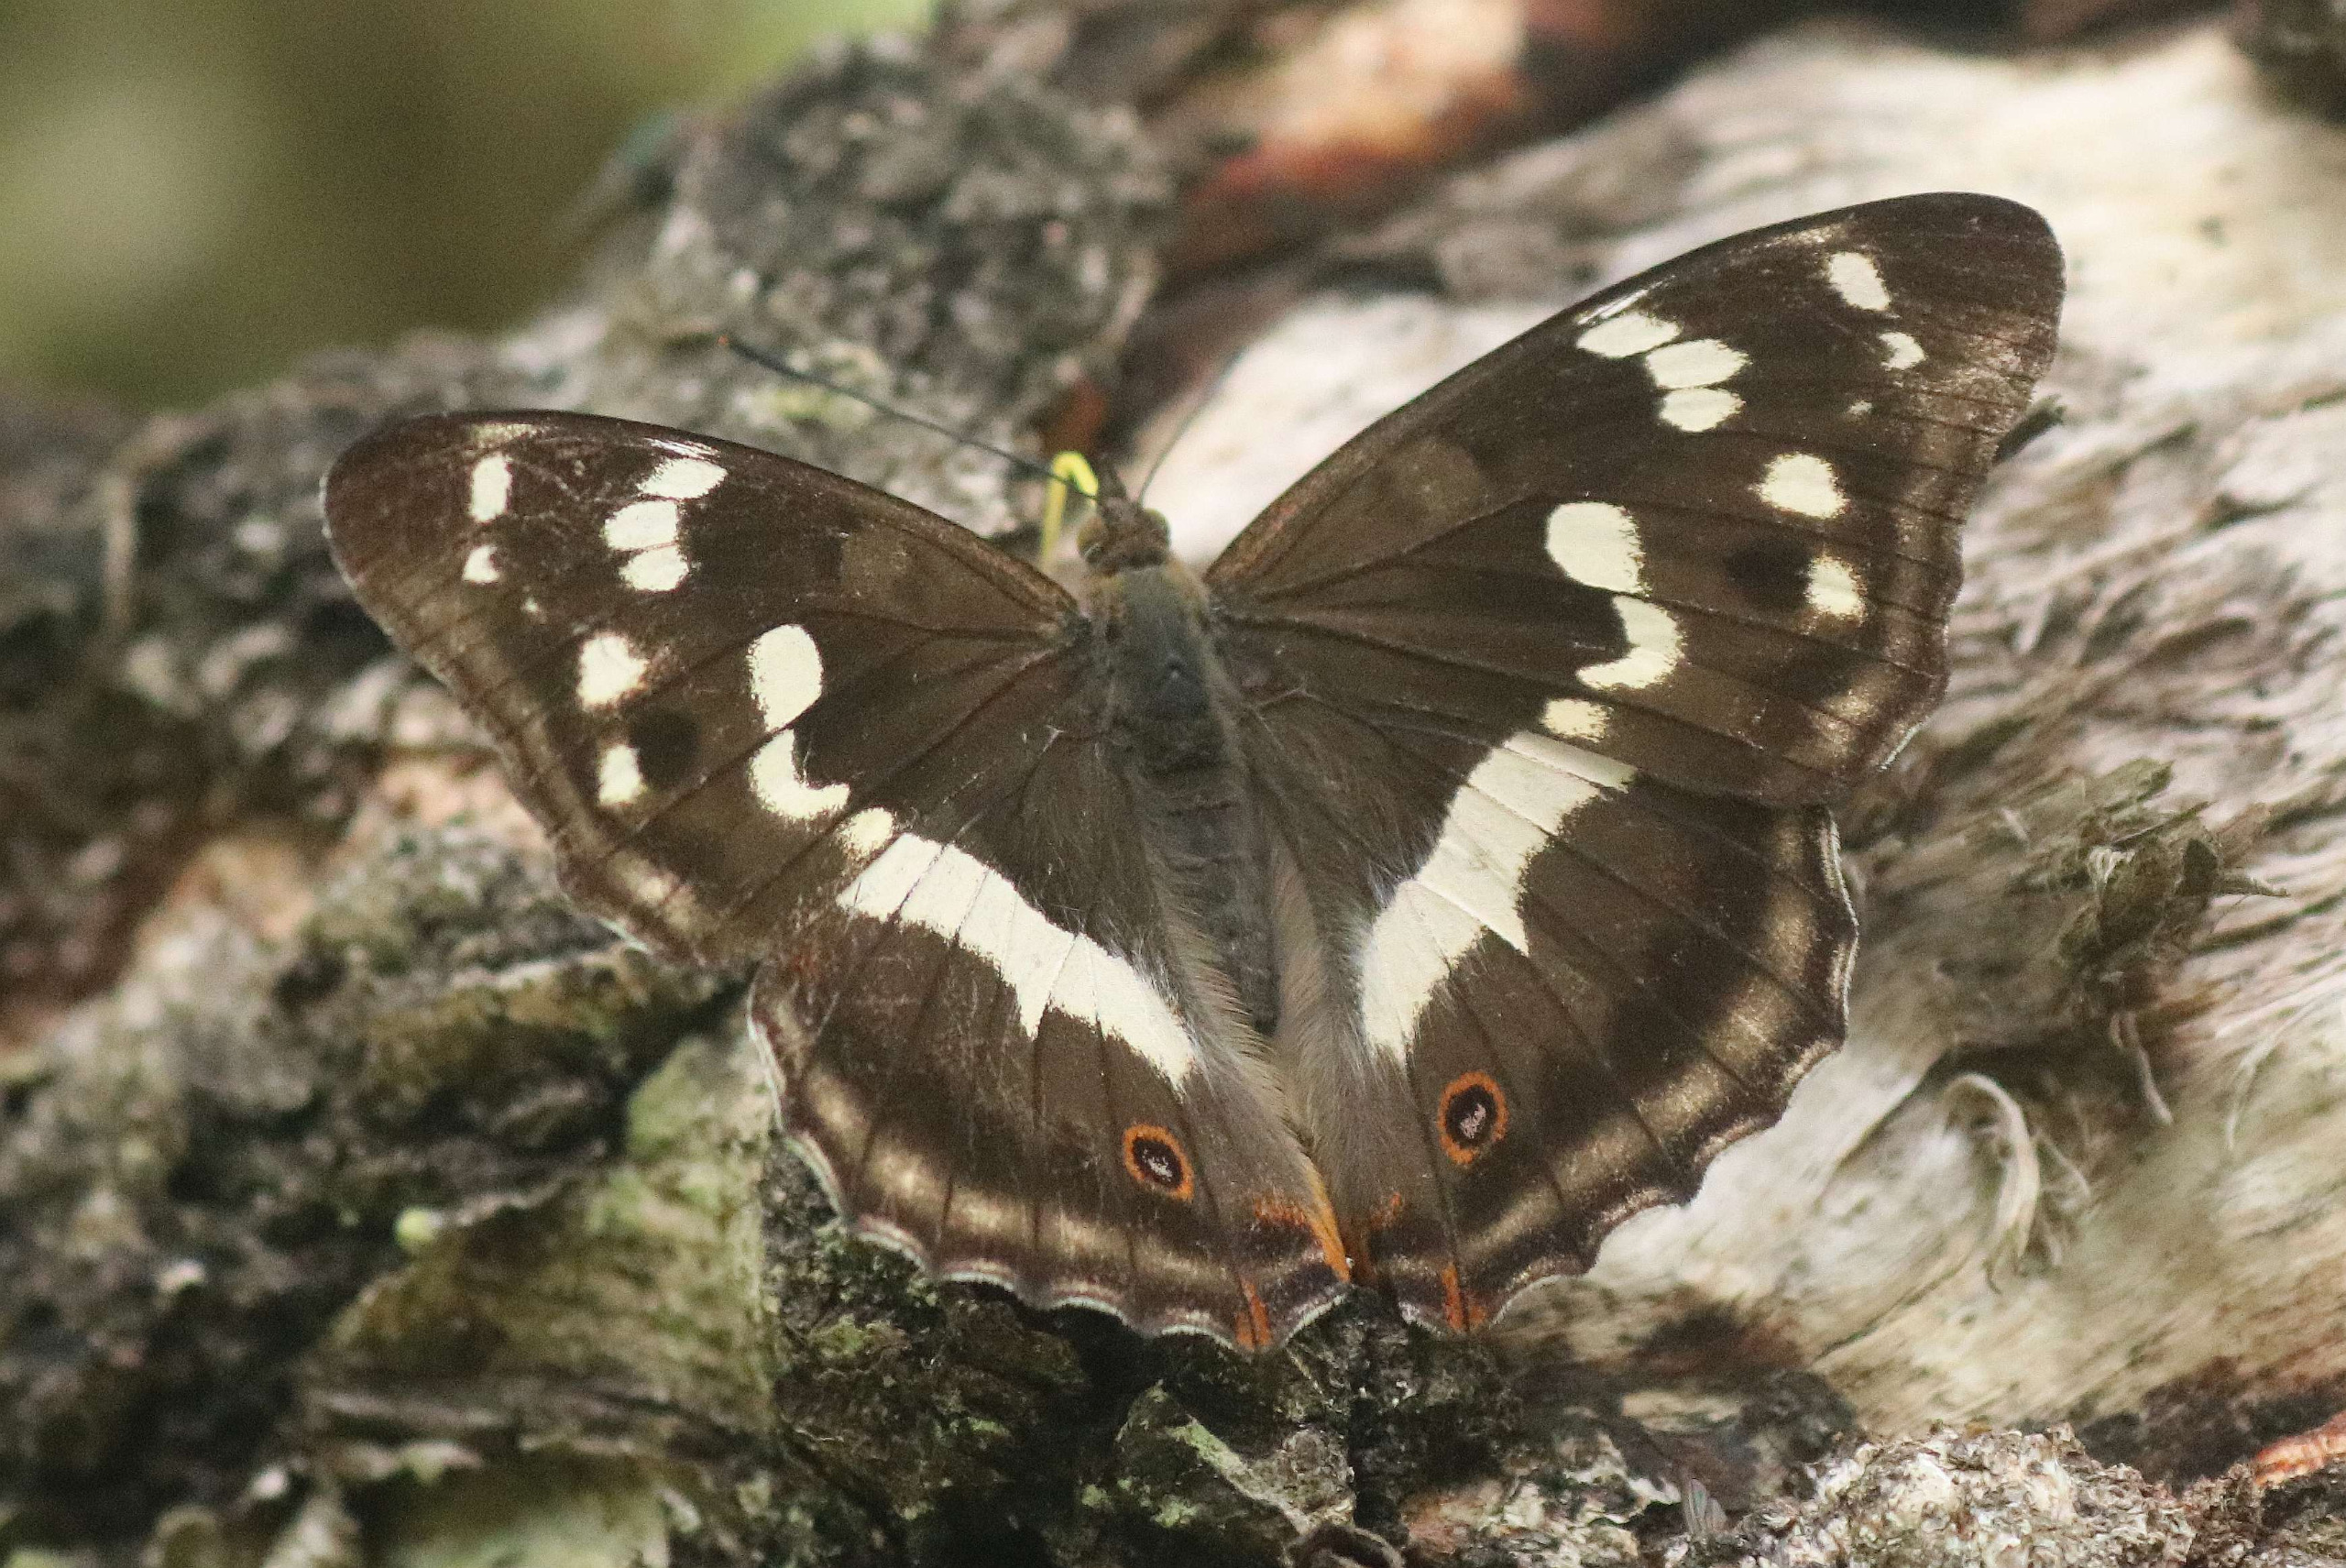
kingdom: Animalia
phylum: Arthropoda
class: Insecta
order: Lepidoptera
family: Nymphalidae
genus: Apatura
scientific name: Apatura iris
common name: Iris
